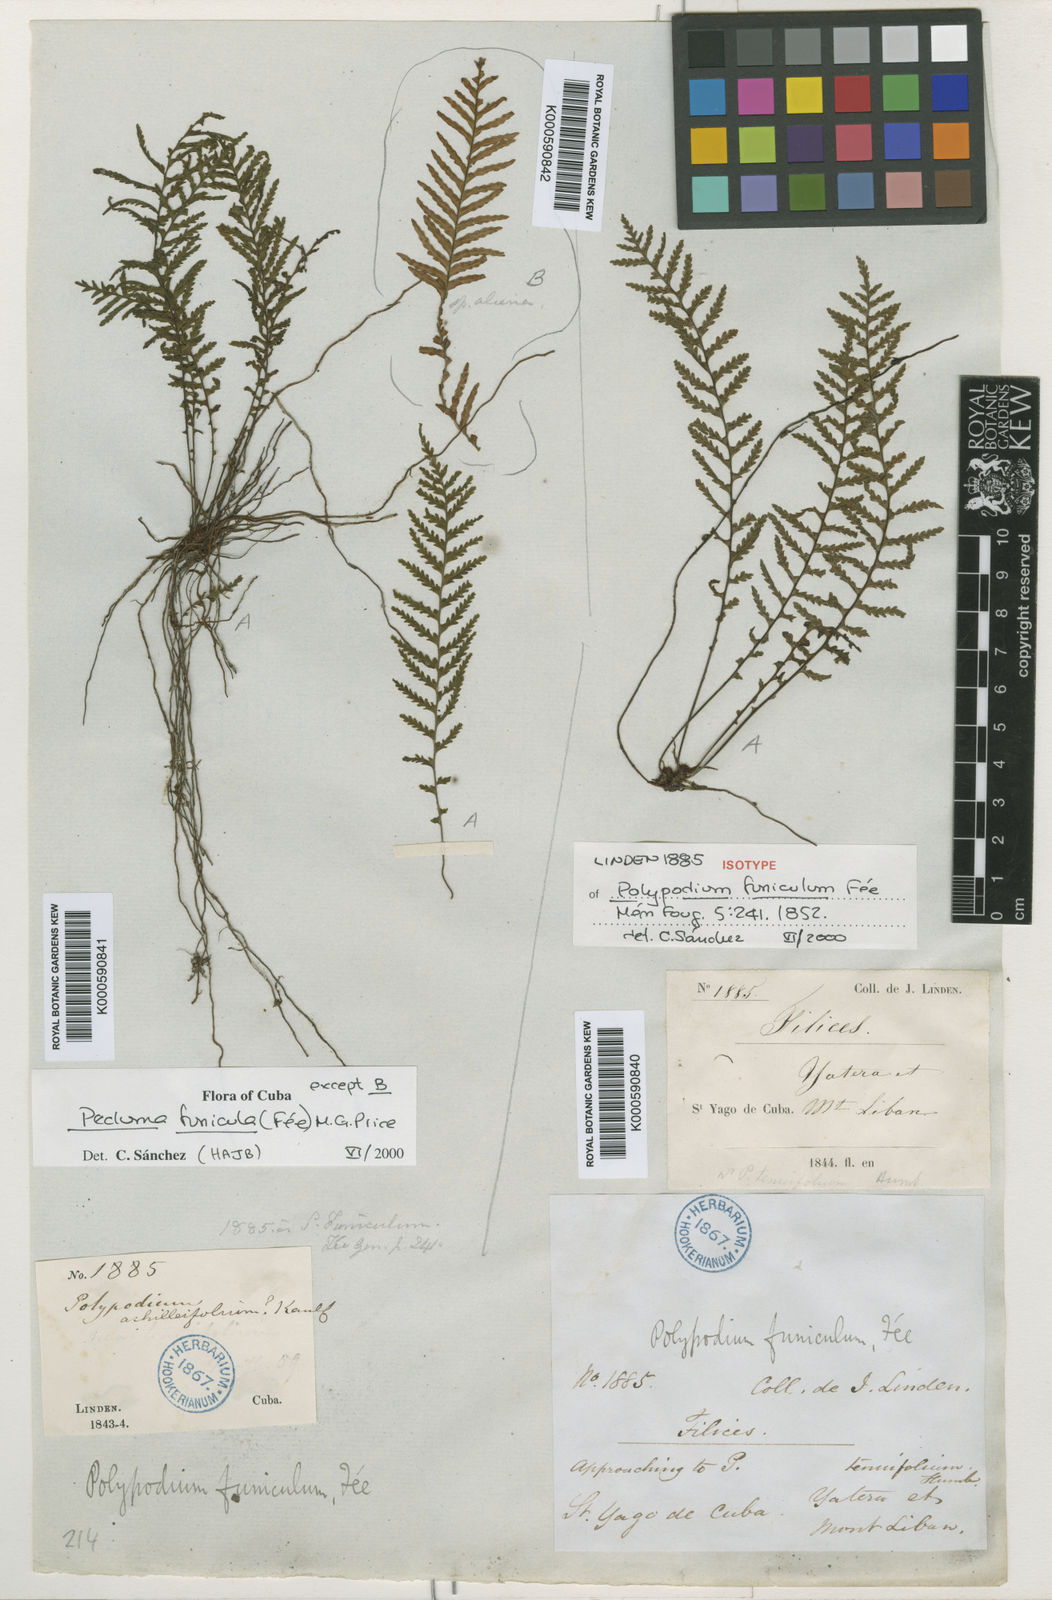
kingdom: Plantae
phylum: Tracheophyta
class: Polypodiopsida
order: Polypodiales
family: Polypodiaceae
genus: Pecluma
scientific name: Pecluma
